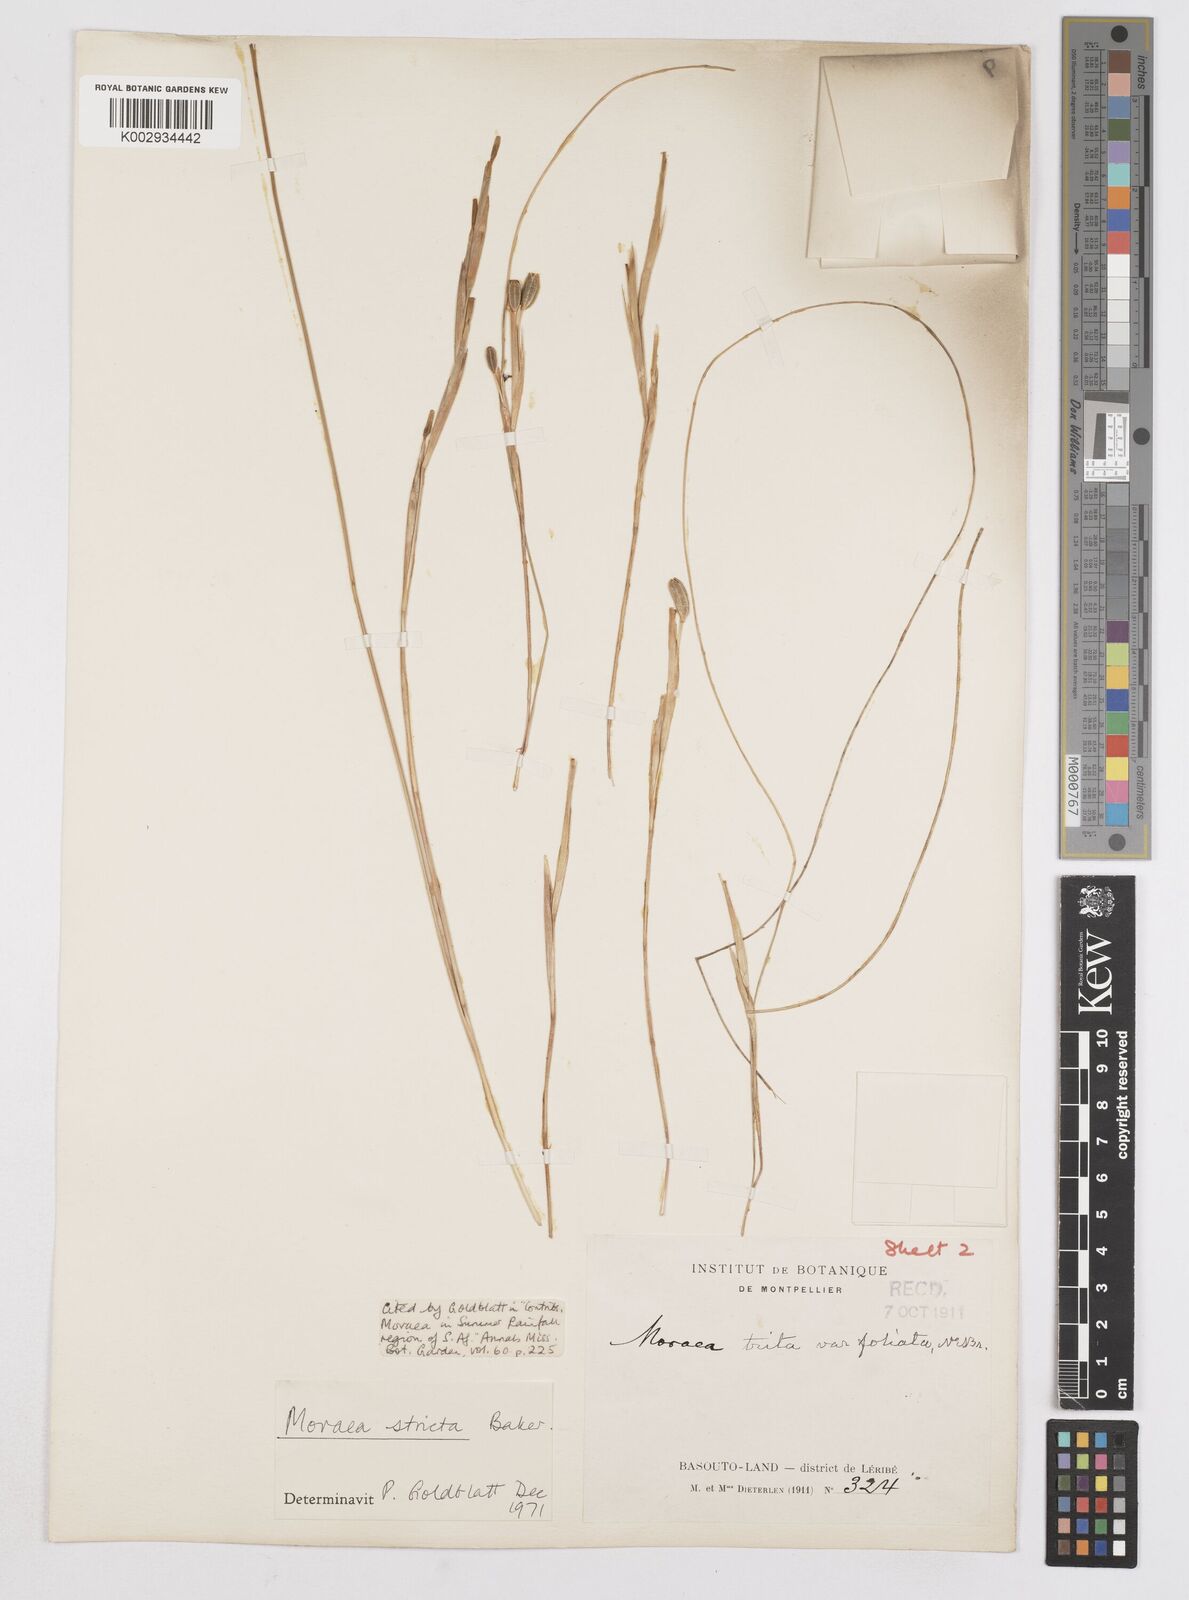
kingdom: Plantae
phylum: Tracheophyta
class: Liliopsida
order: Asparagales
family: Iridaceae
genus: Moraea
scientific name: Moraea stricta
